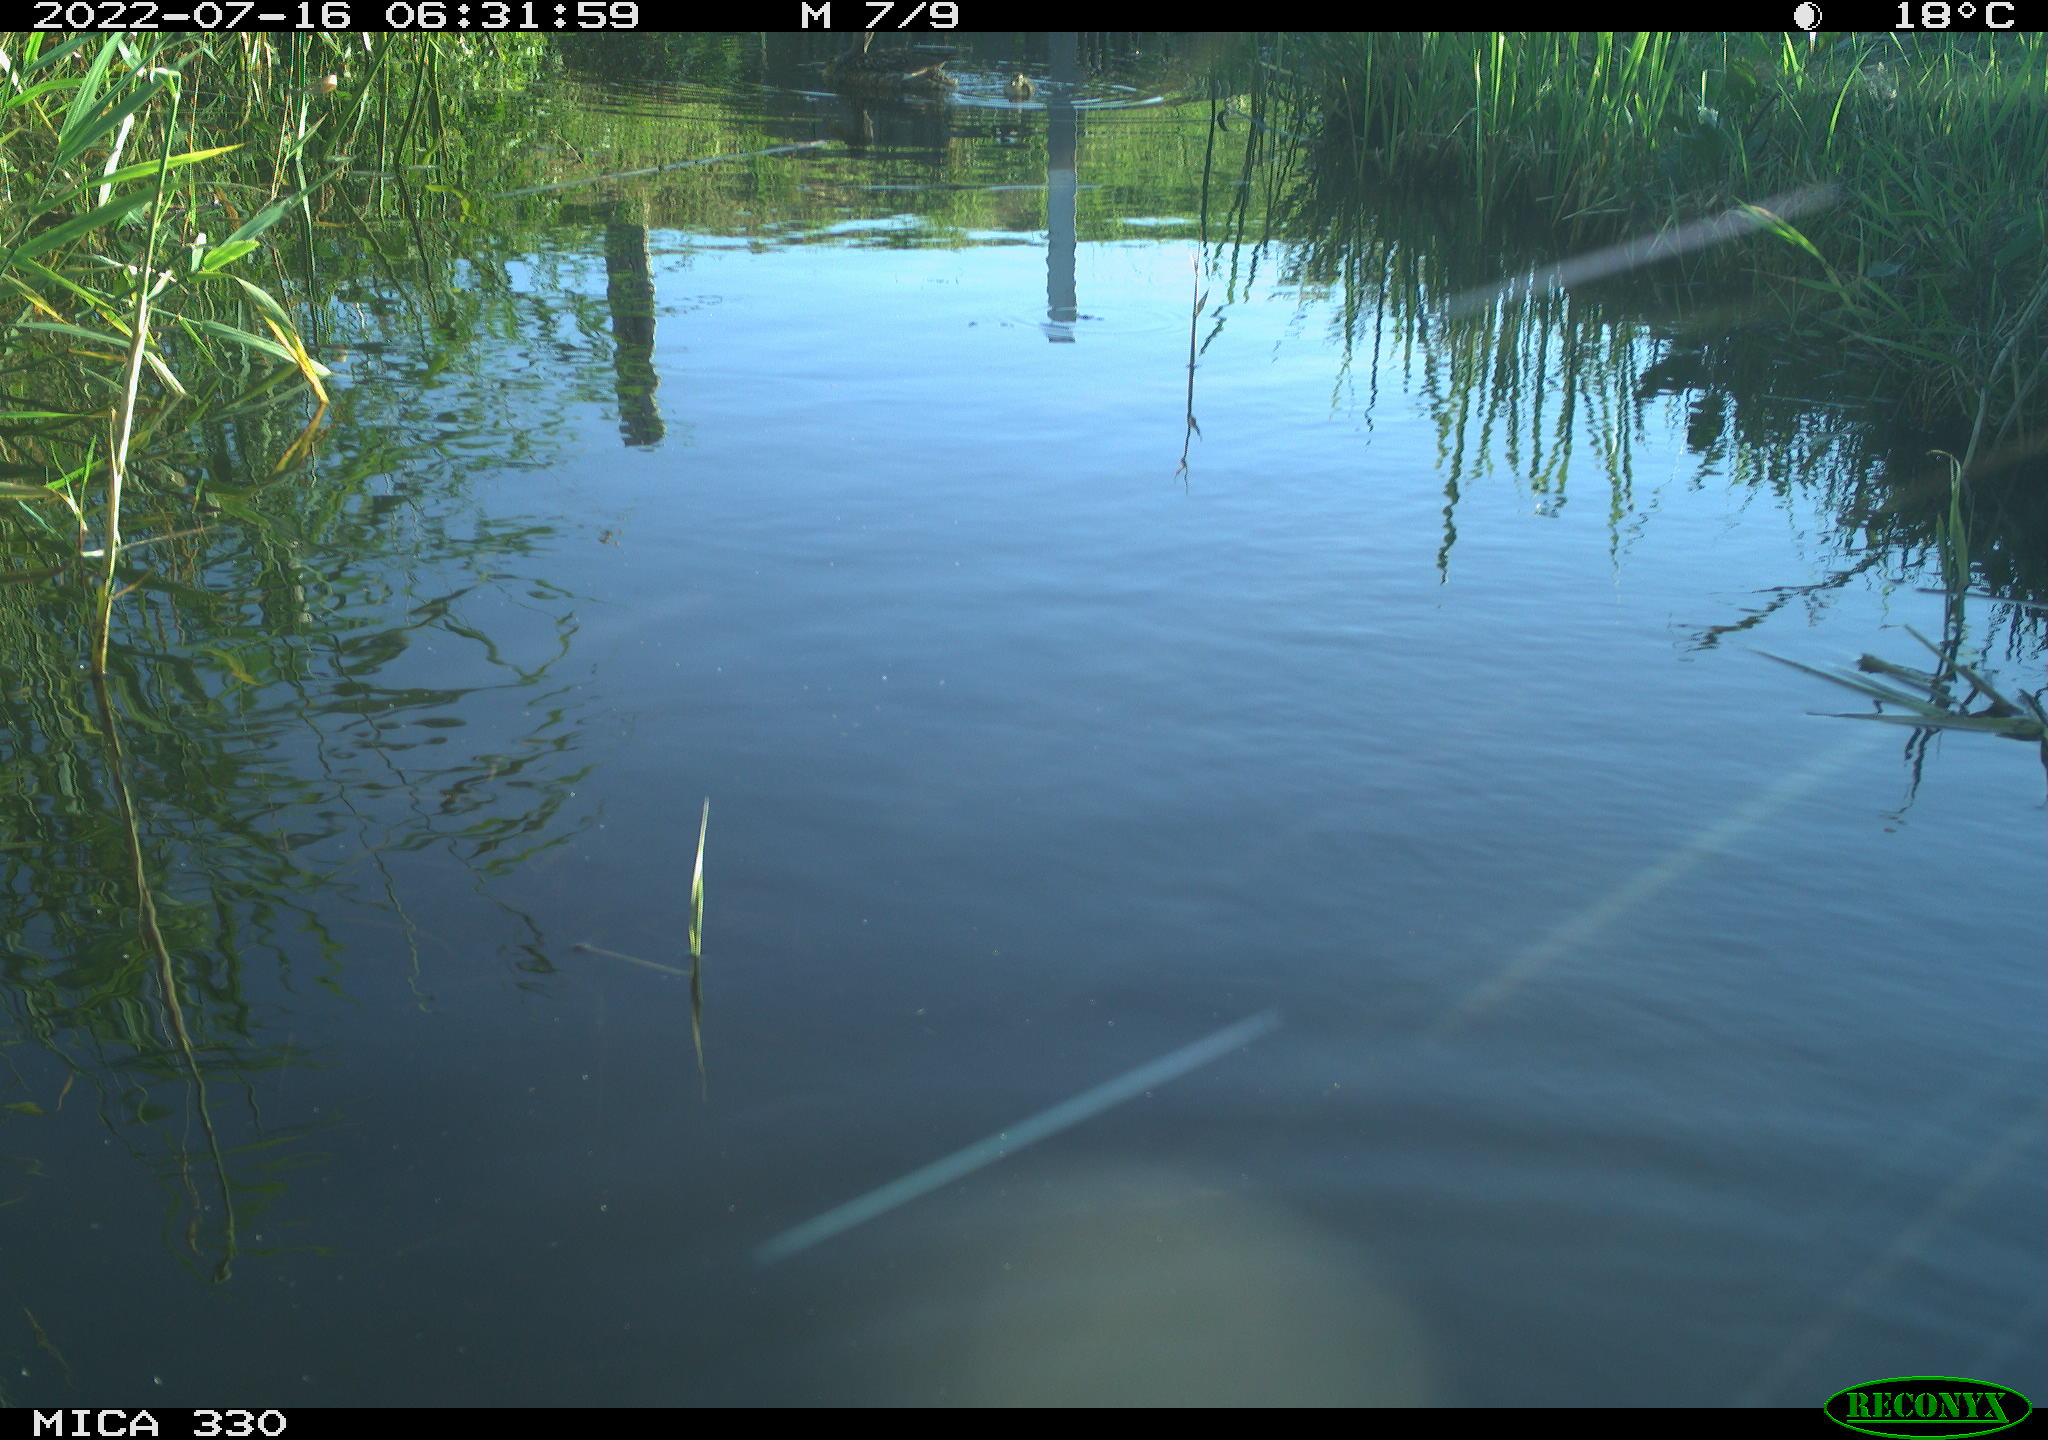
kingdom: Animalia
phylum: Chordata
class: Aves
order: Anseriformes
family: Anatidae
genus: Anas
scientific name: Anas platyrhynchos
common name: Mallard
